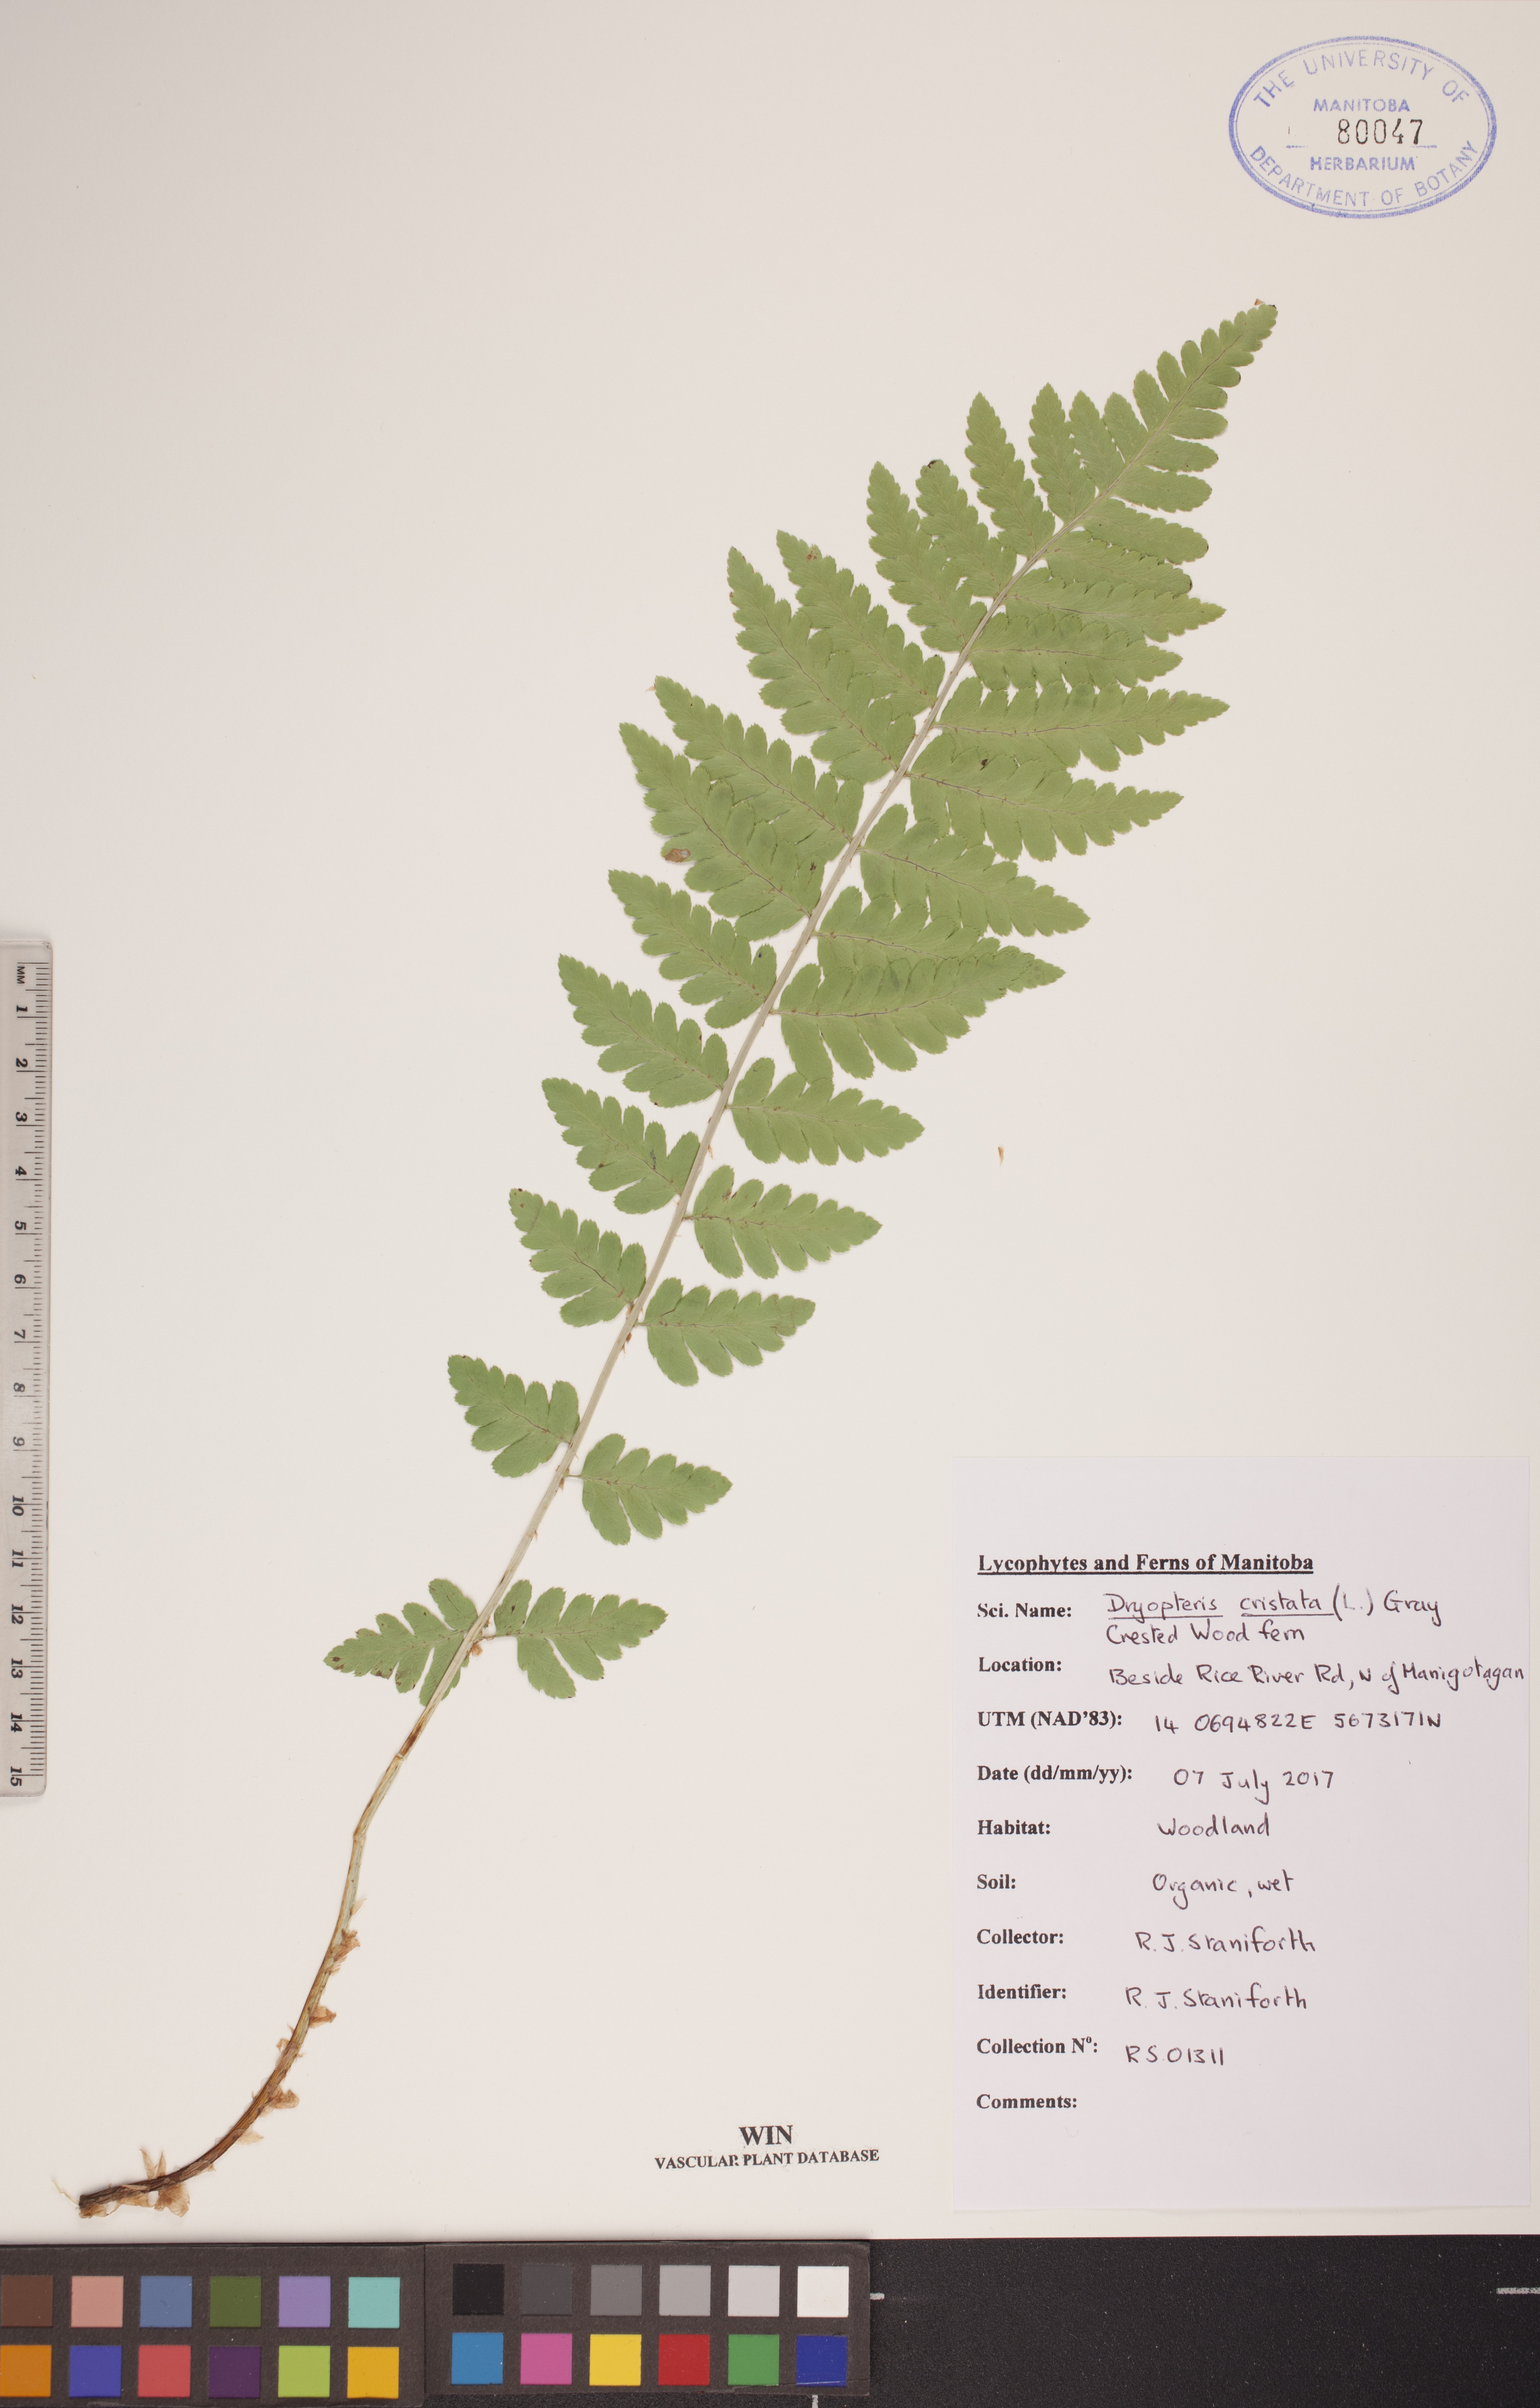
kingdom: Plantae
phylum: Tracheophyta
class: Polypodiopsida
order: Polypodiales
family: Dryopteridaceae
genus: Dryopteris
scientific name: Dryopteris cristata
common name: Crested wood fern
